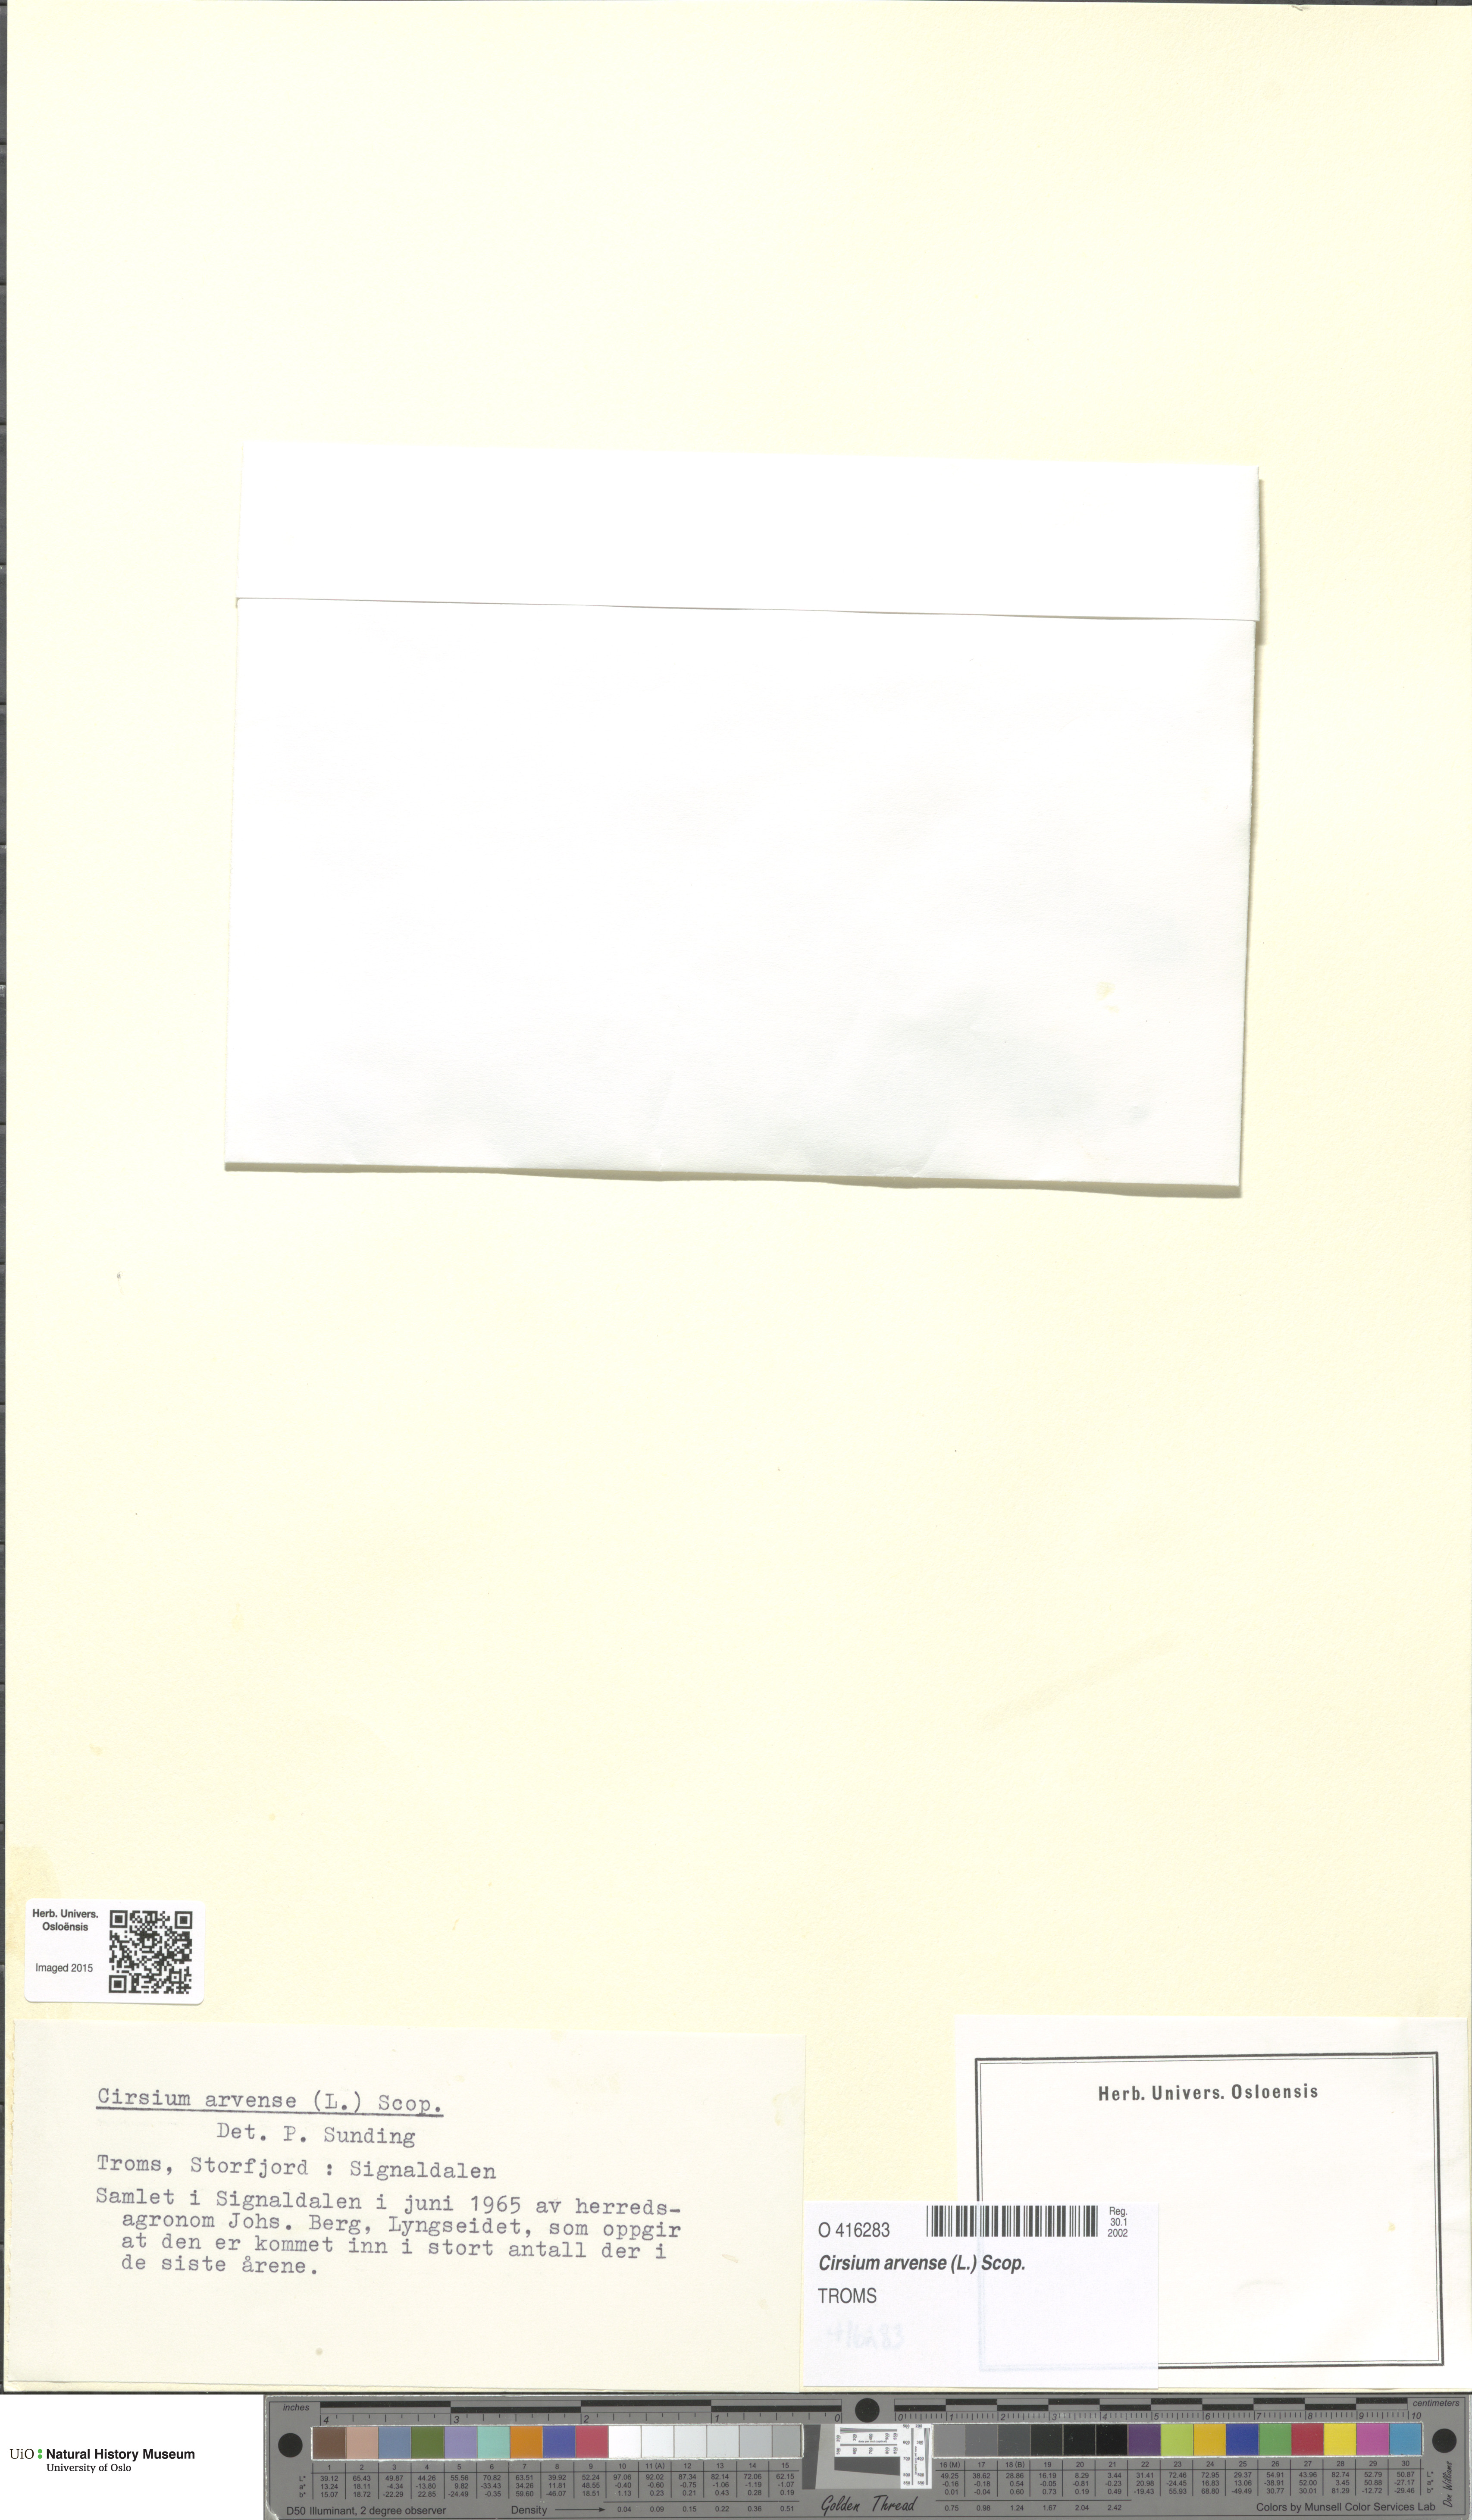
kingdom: Plantae
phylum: Tracheophyta
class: Magnoliopsida
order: Asterales
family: Asteraceae
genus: Cirsium
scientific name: Cirsium arvense
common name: Creeping thistle
